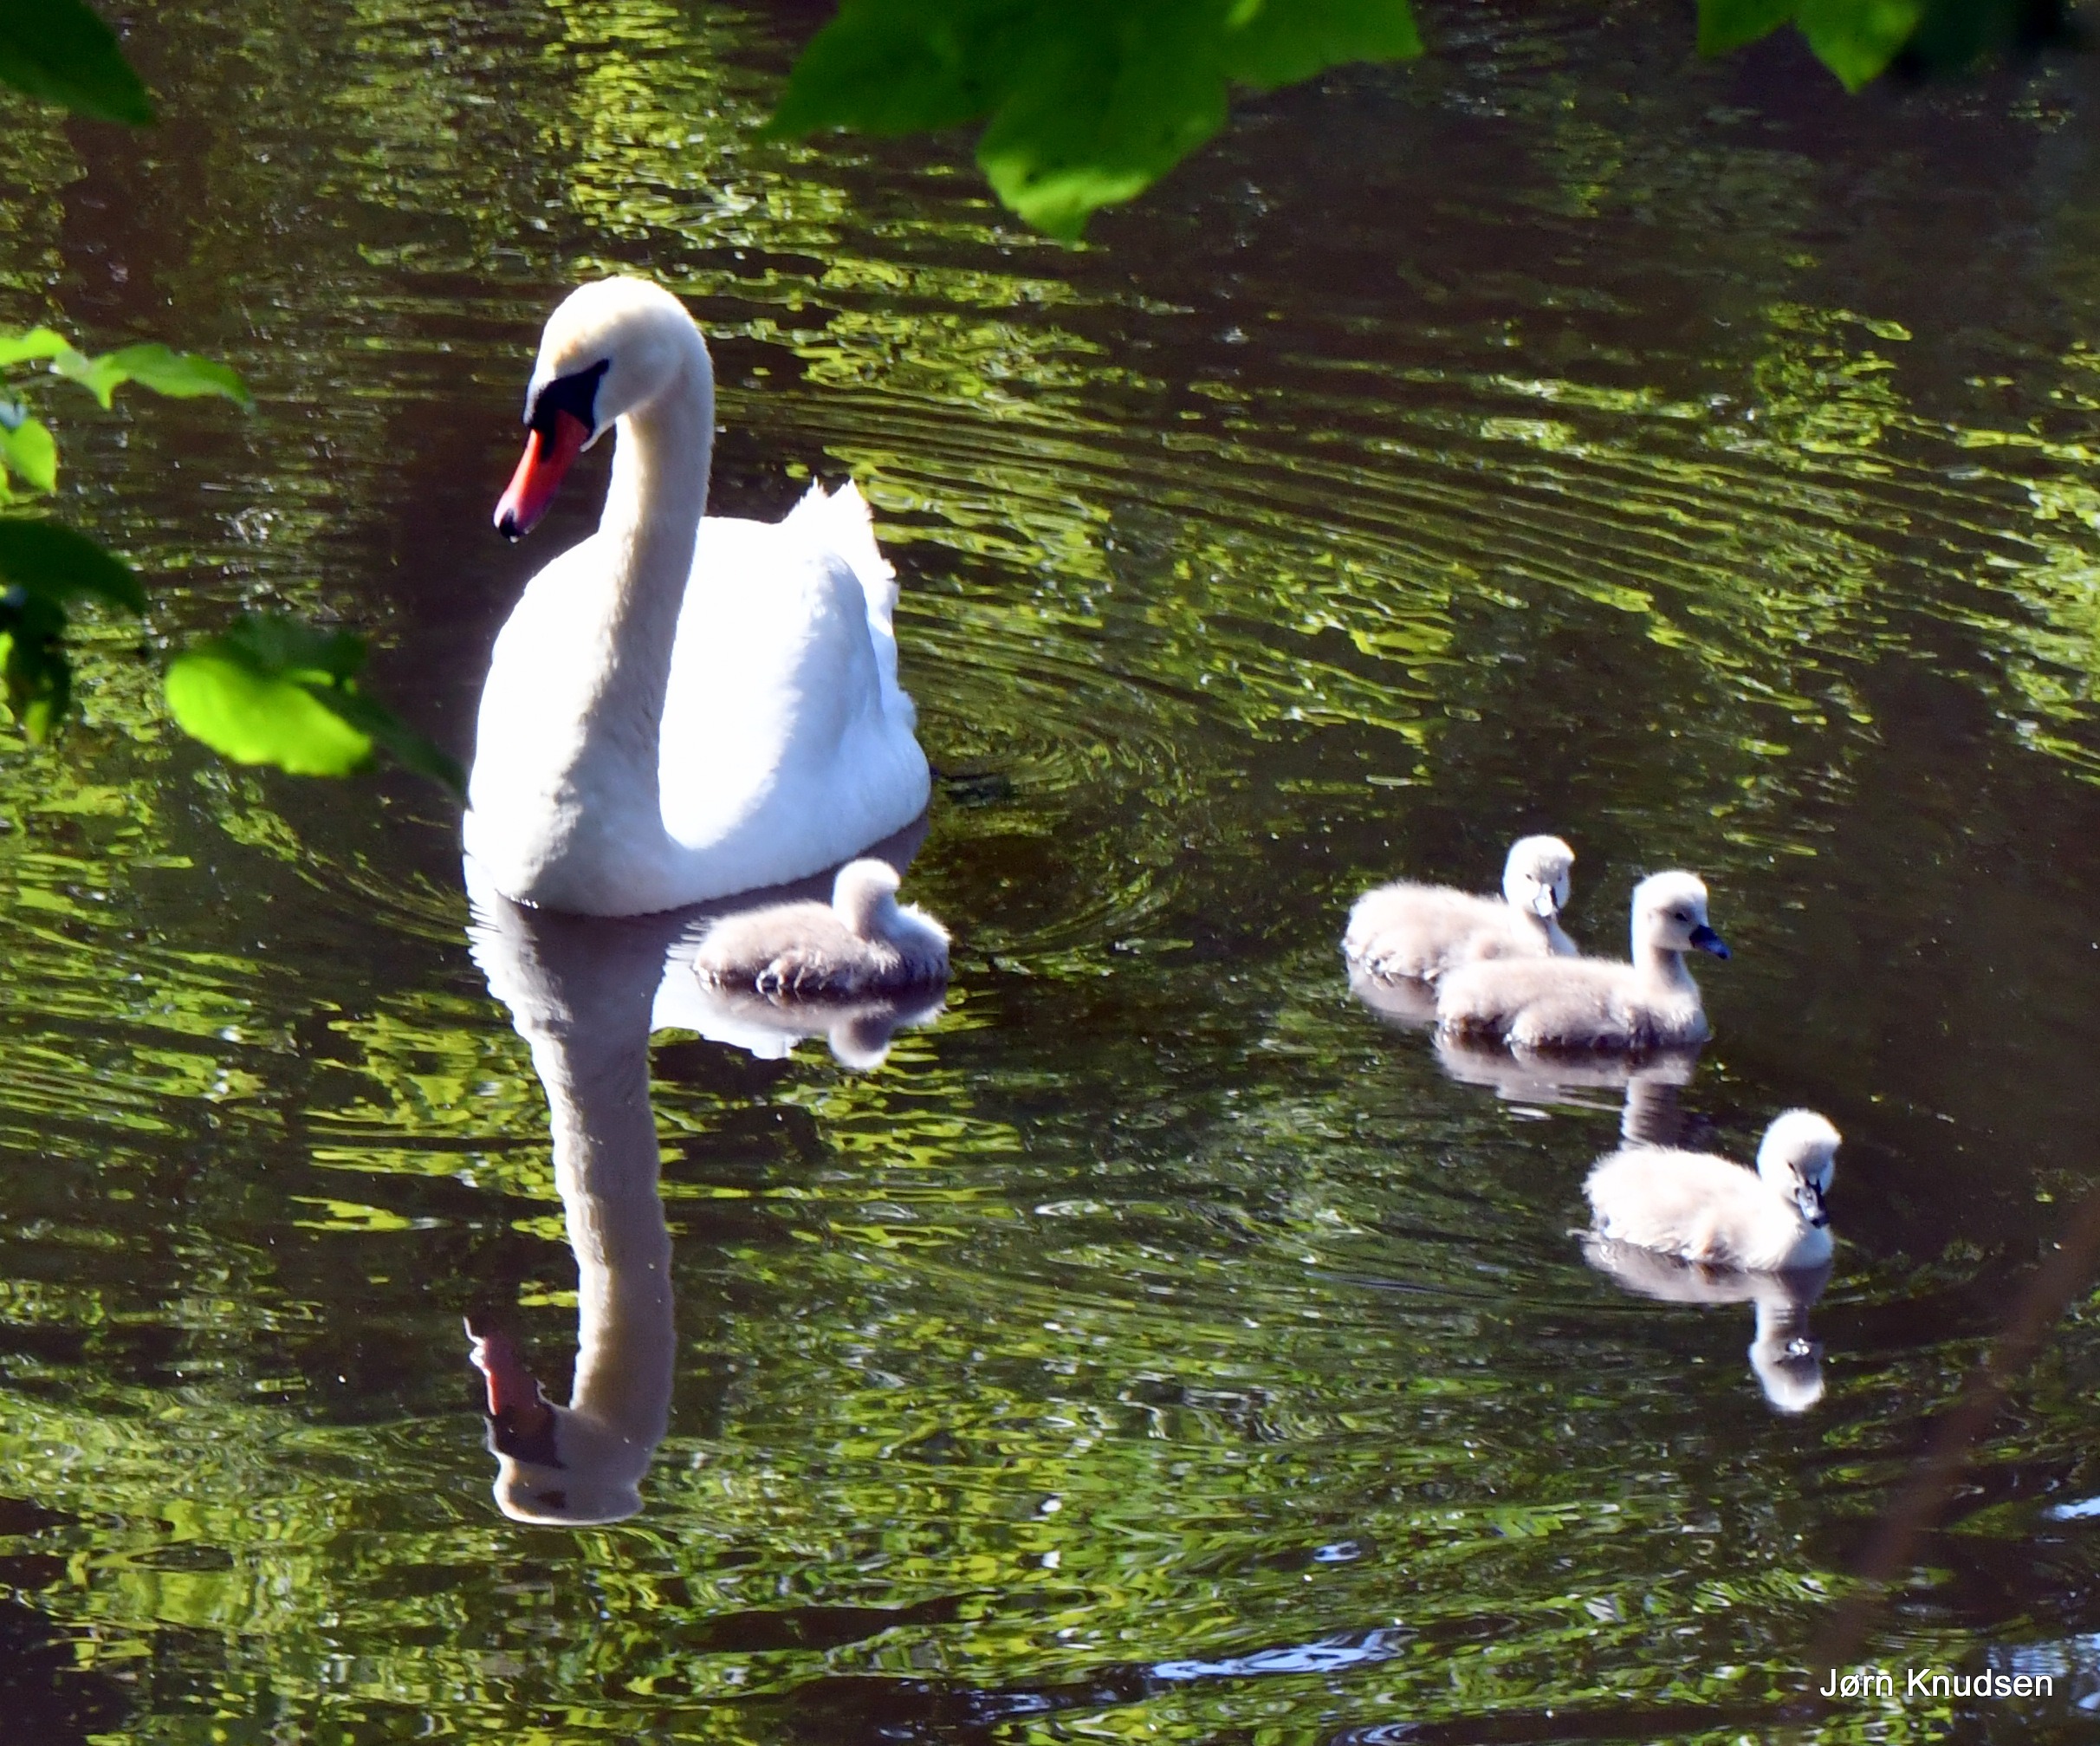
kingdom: Animalia
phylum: Chordata
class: Aves
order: Anseriformes
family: Anatidae
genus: Cygnus
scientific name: Cygnus olor
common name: Knopsvane
